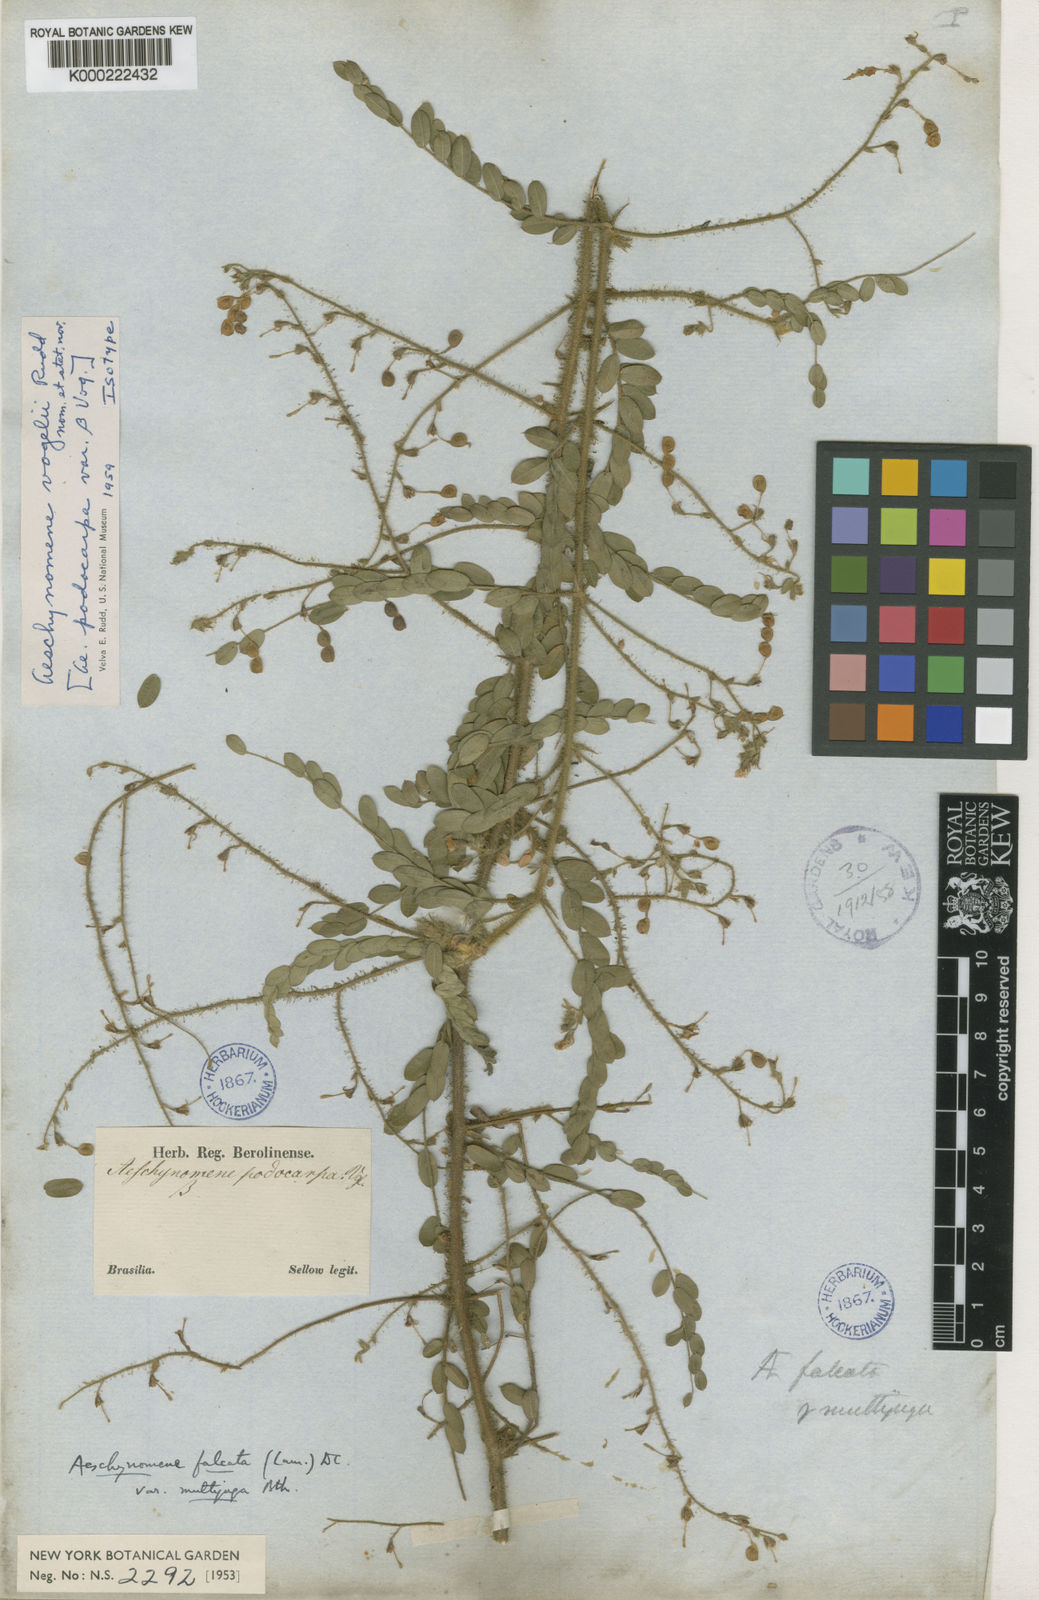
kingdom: Plantae
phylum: Tracheophyta
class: Magnoliopsida
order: Fabales
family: Fabaceae
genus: Ctenodon
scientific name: Ctenodon falcatus
